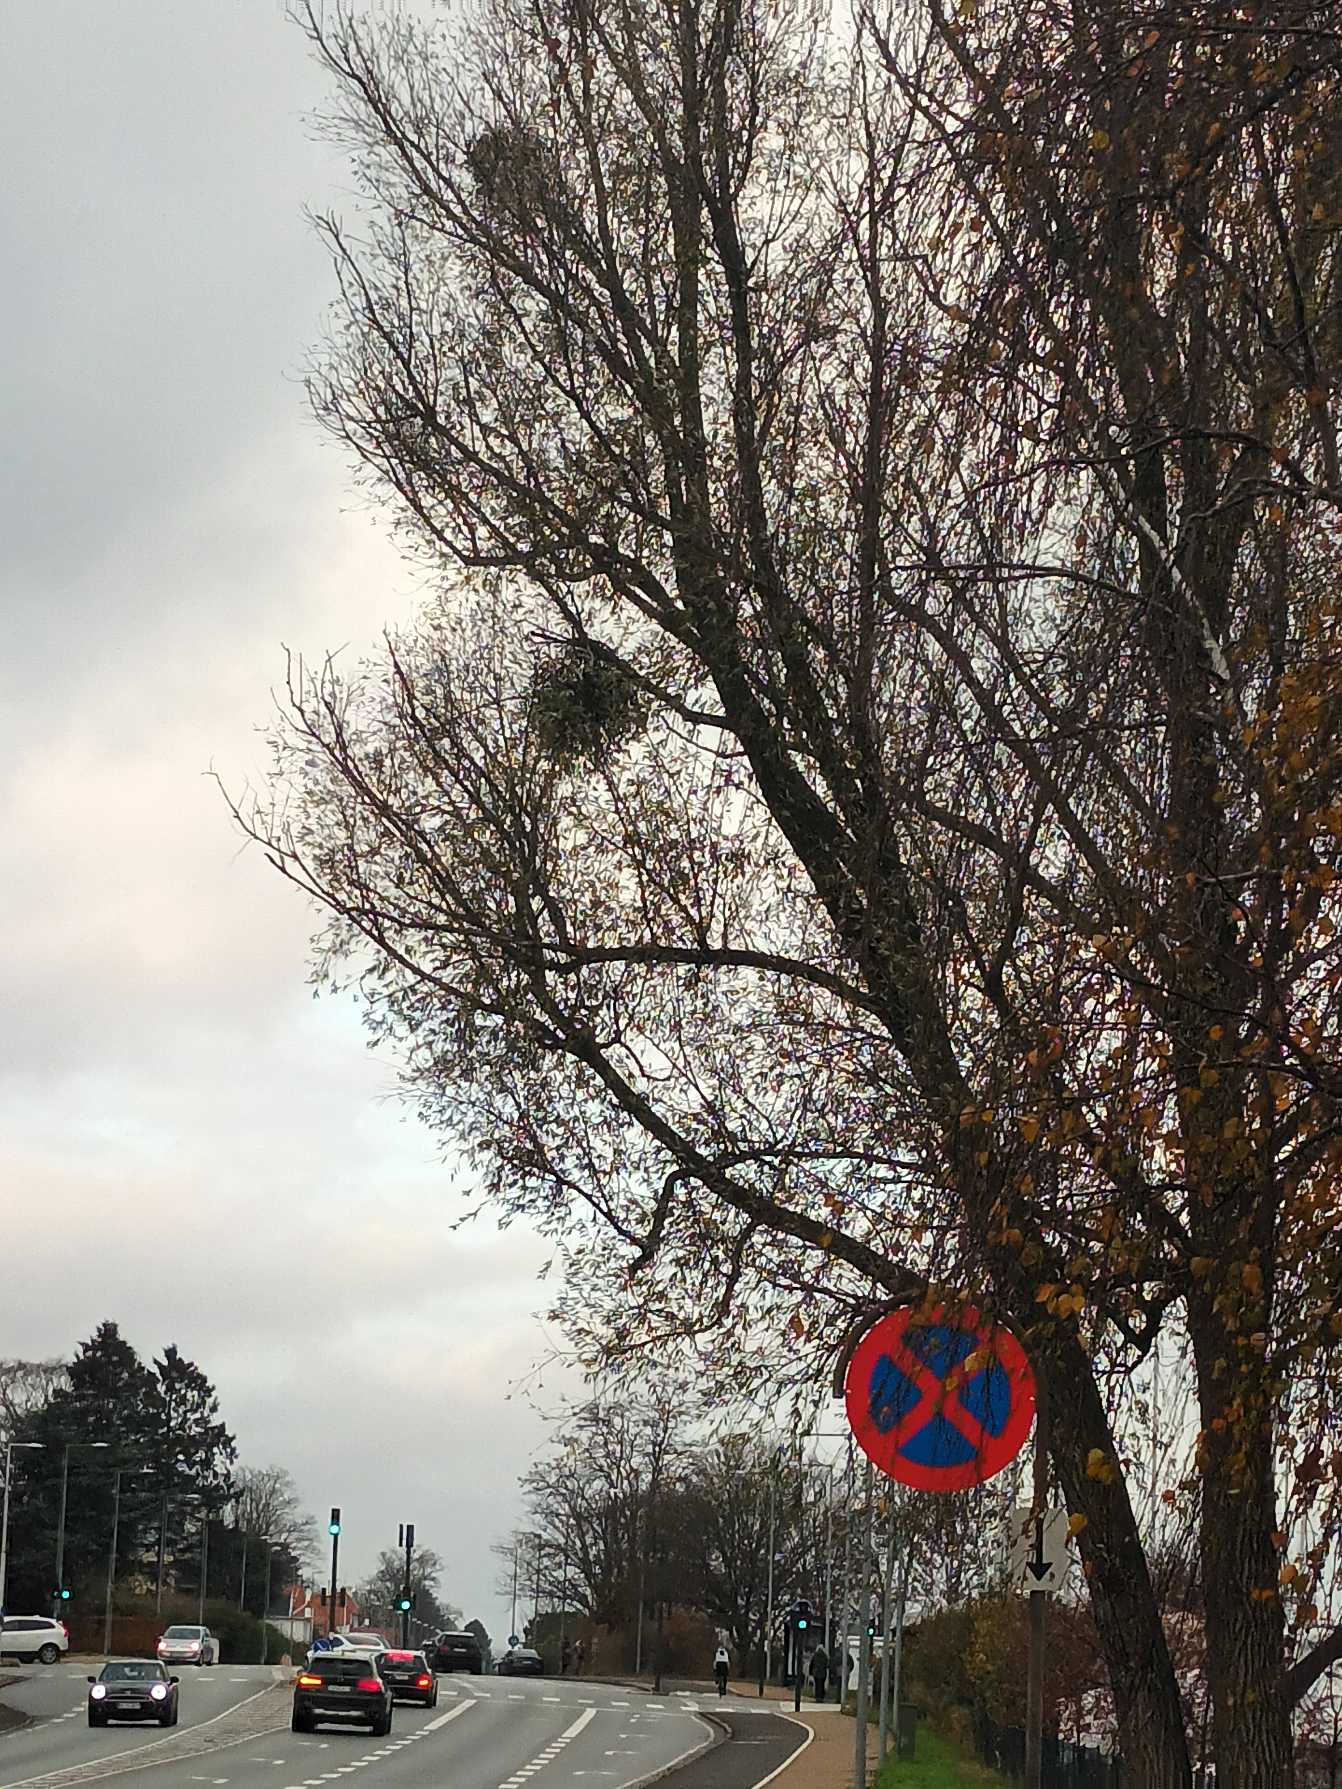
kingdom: Plantae
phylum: Tracheophyta
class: Magnoliopsida
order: Santalales
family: Viscaceae
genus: Viscum
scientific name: Viscum album
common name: Mistelten
